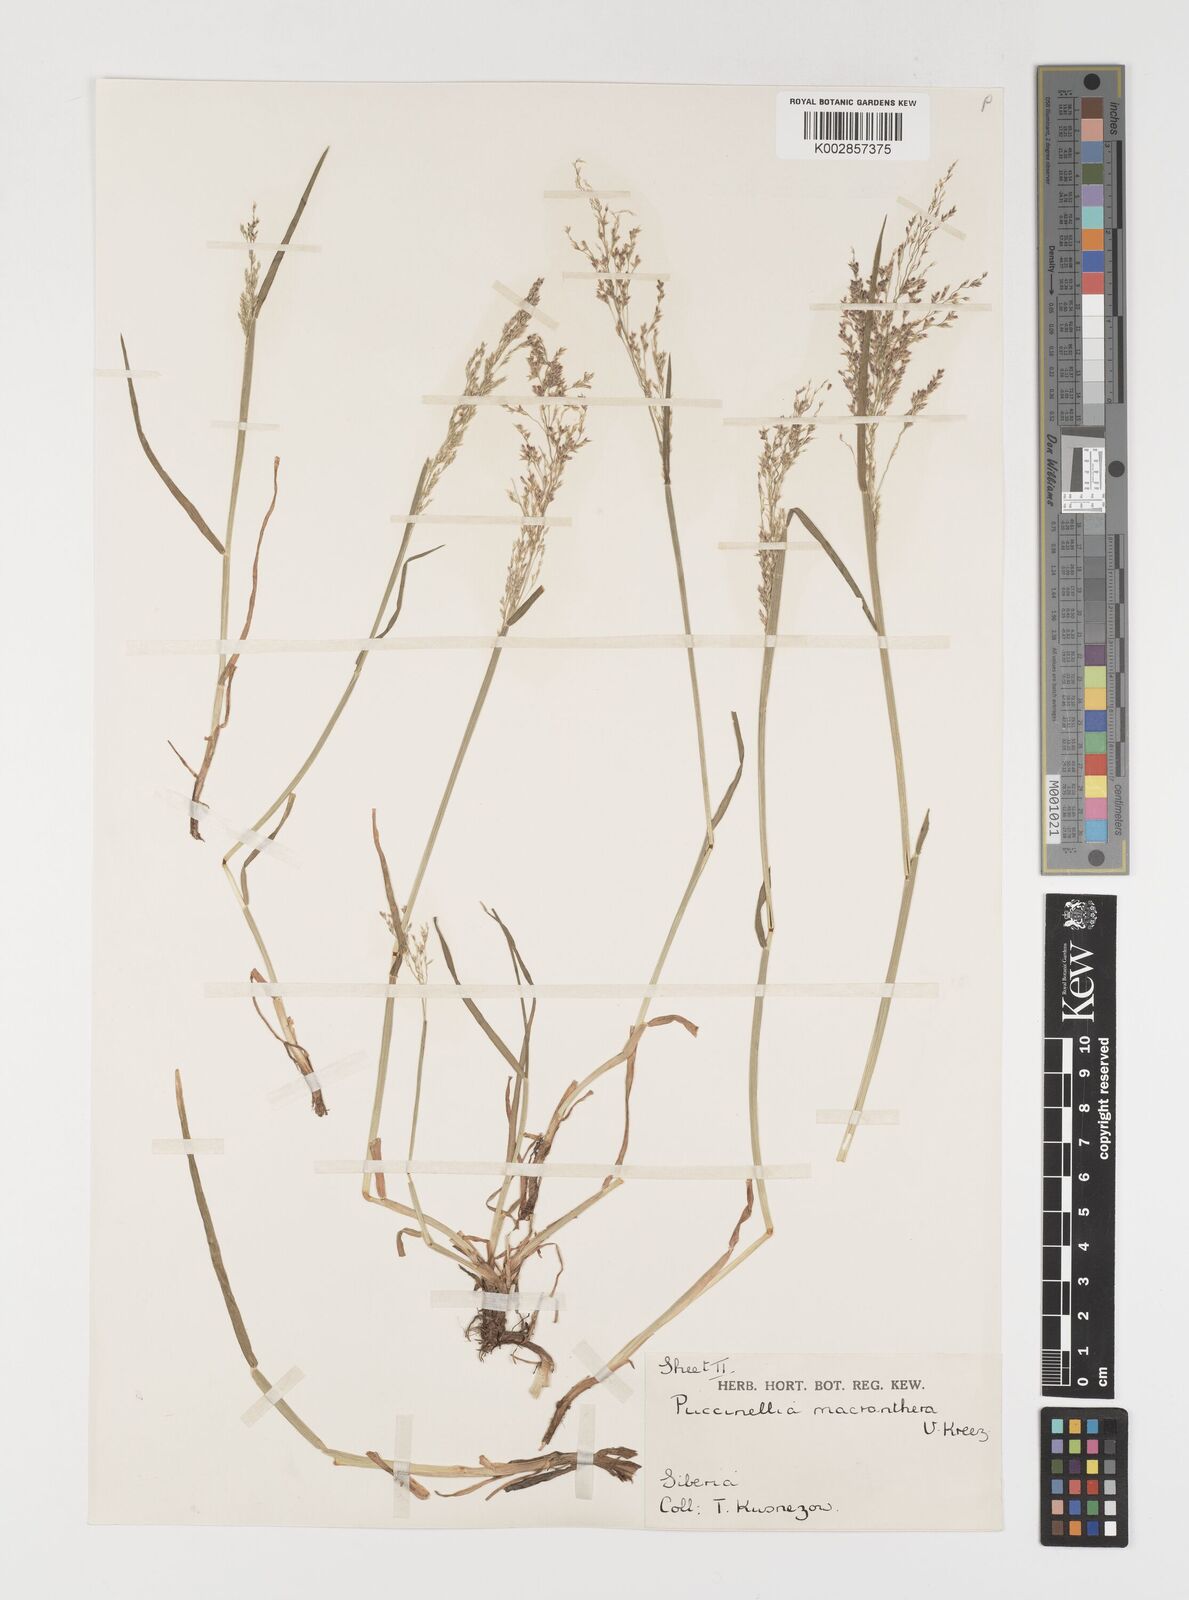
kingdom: Plantae
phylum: Tracheophyta
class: Liliopsida
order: Poales
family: Poaceae
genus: Puccinellia
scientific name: Puccinellia macranthera
